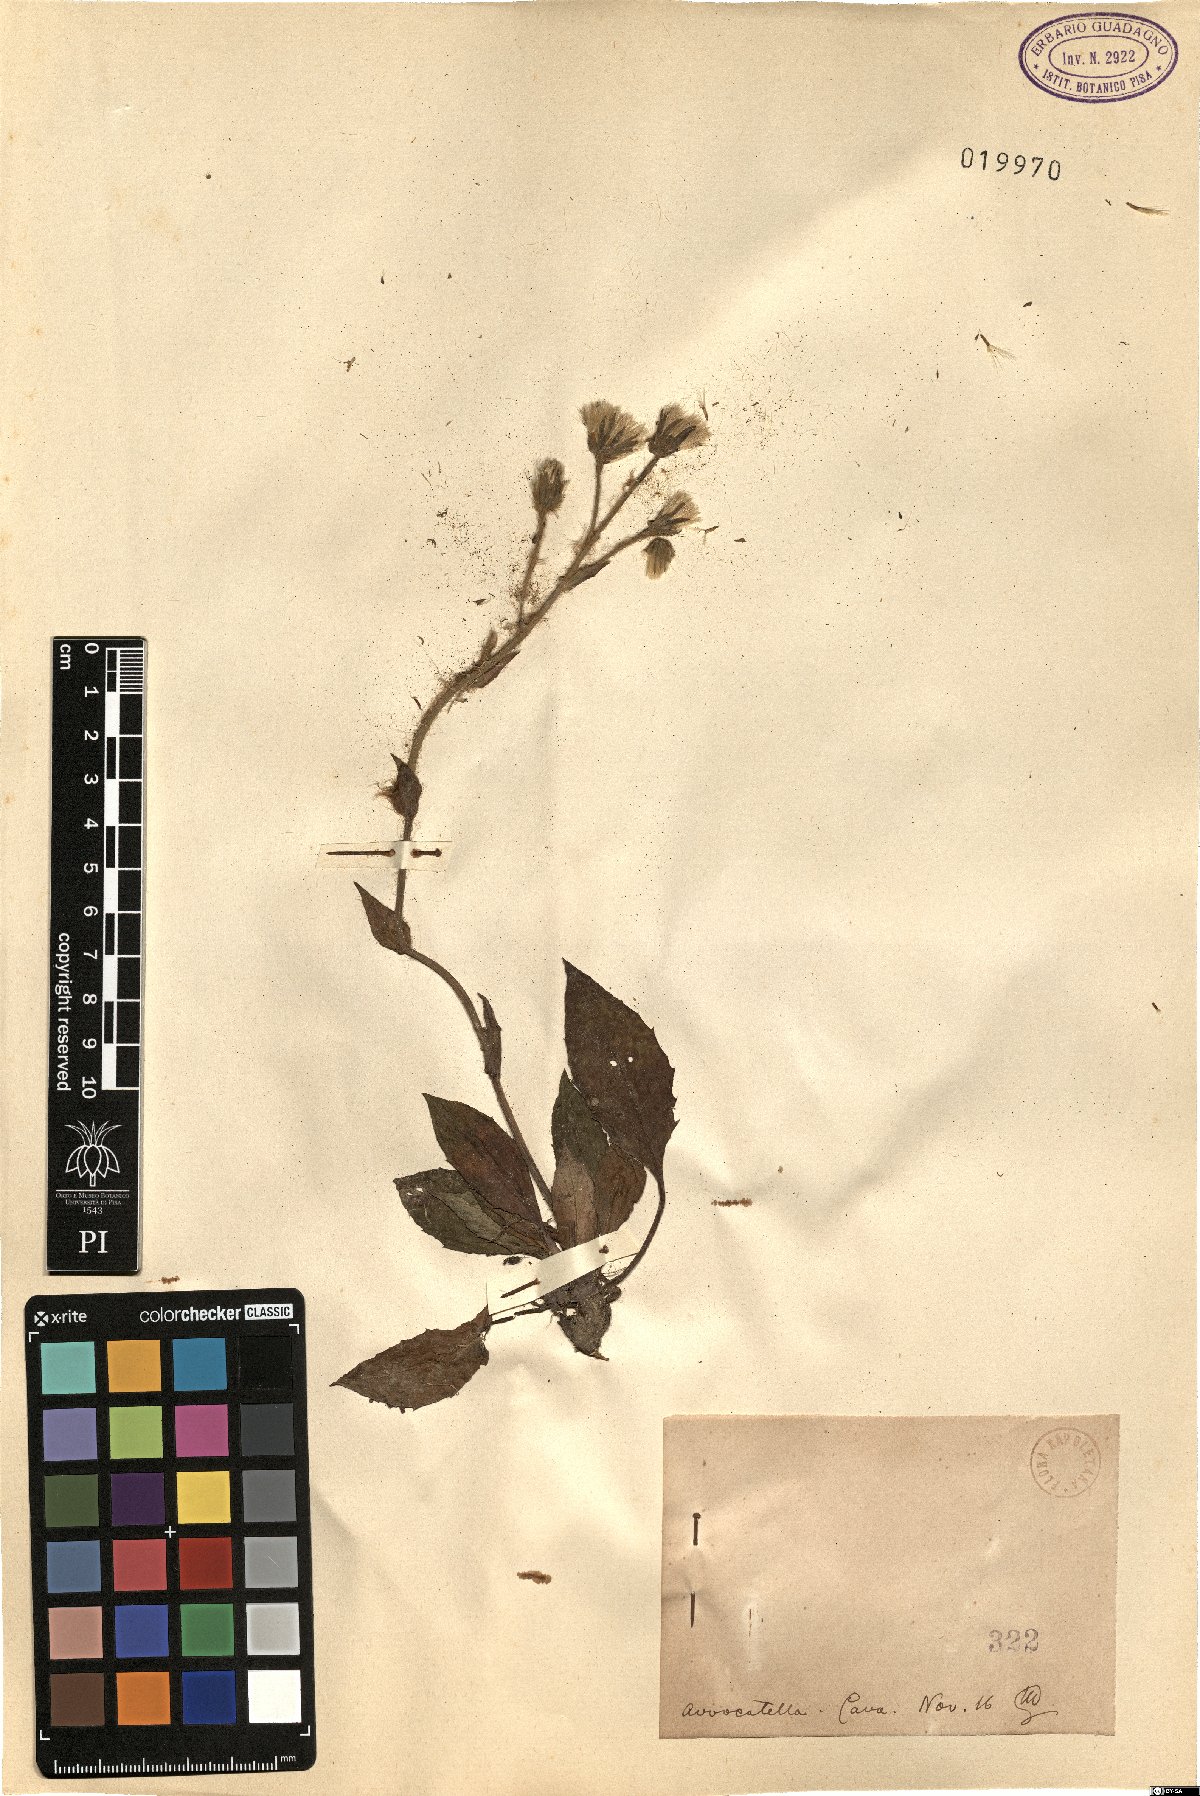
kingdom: Plantae
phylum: Tracheophyta
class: Magnoliopsida
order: Asterales
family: Asteraceae
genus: Hieracium
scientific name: Hieracium
